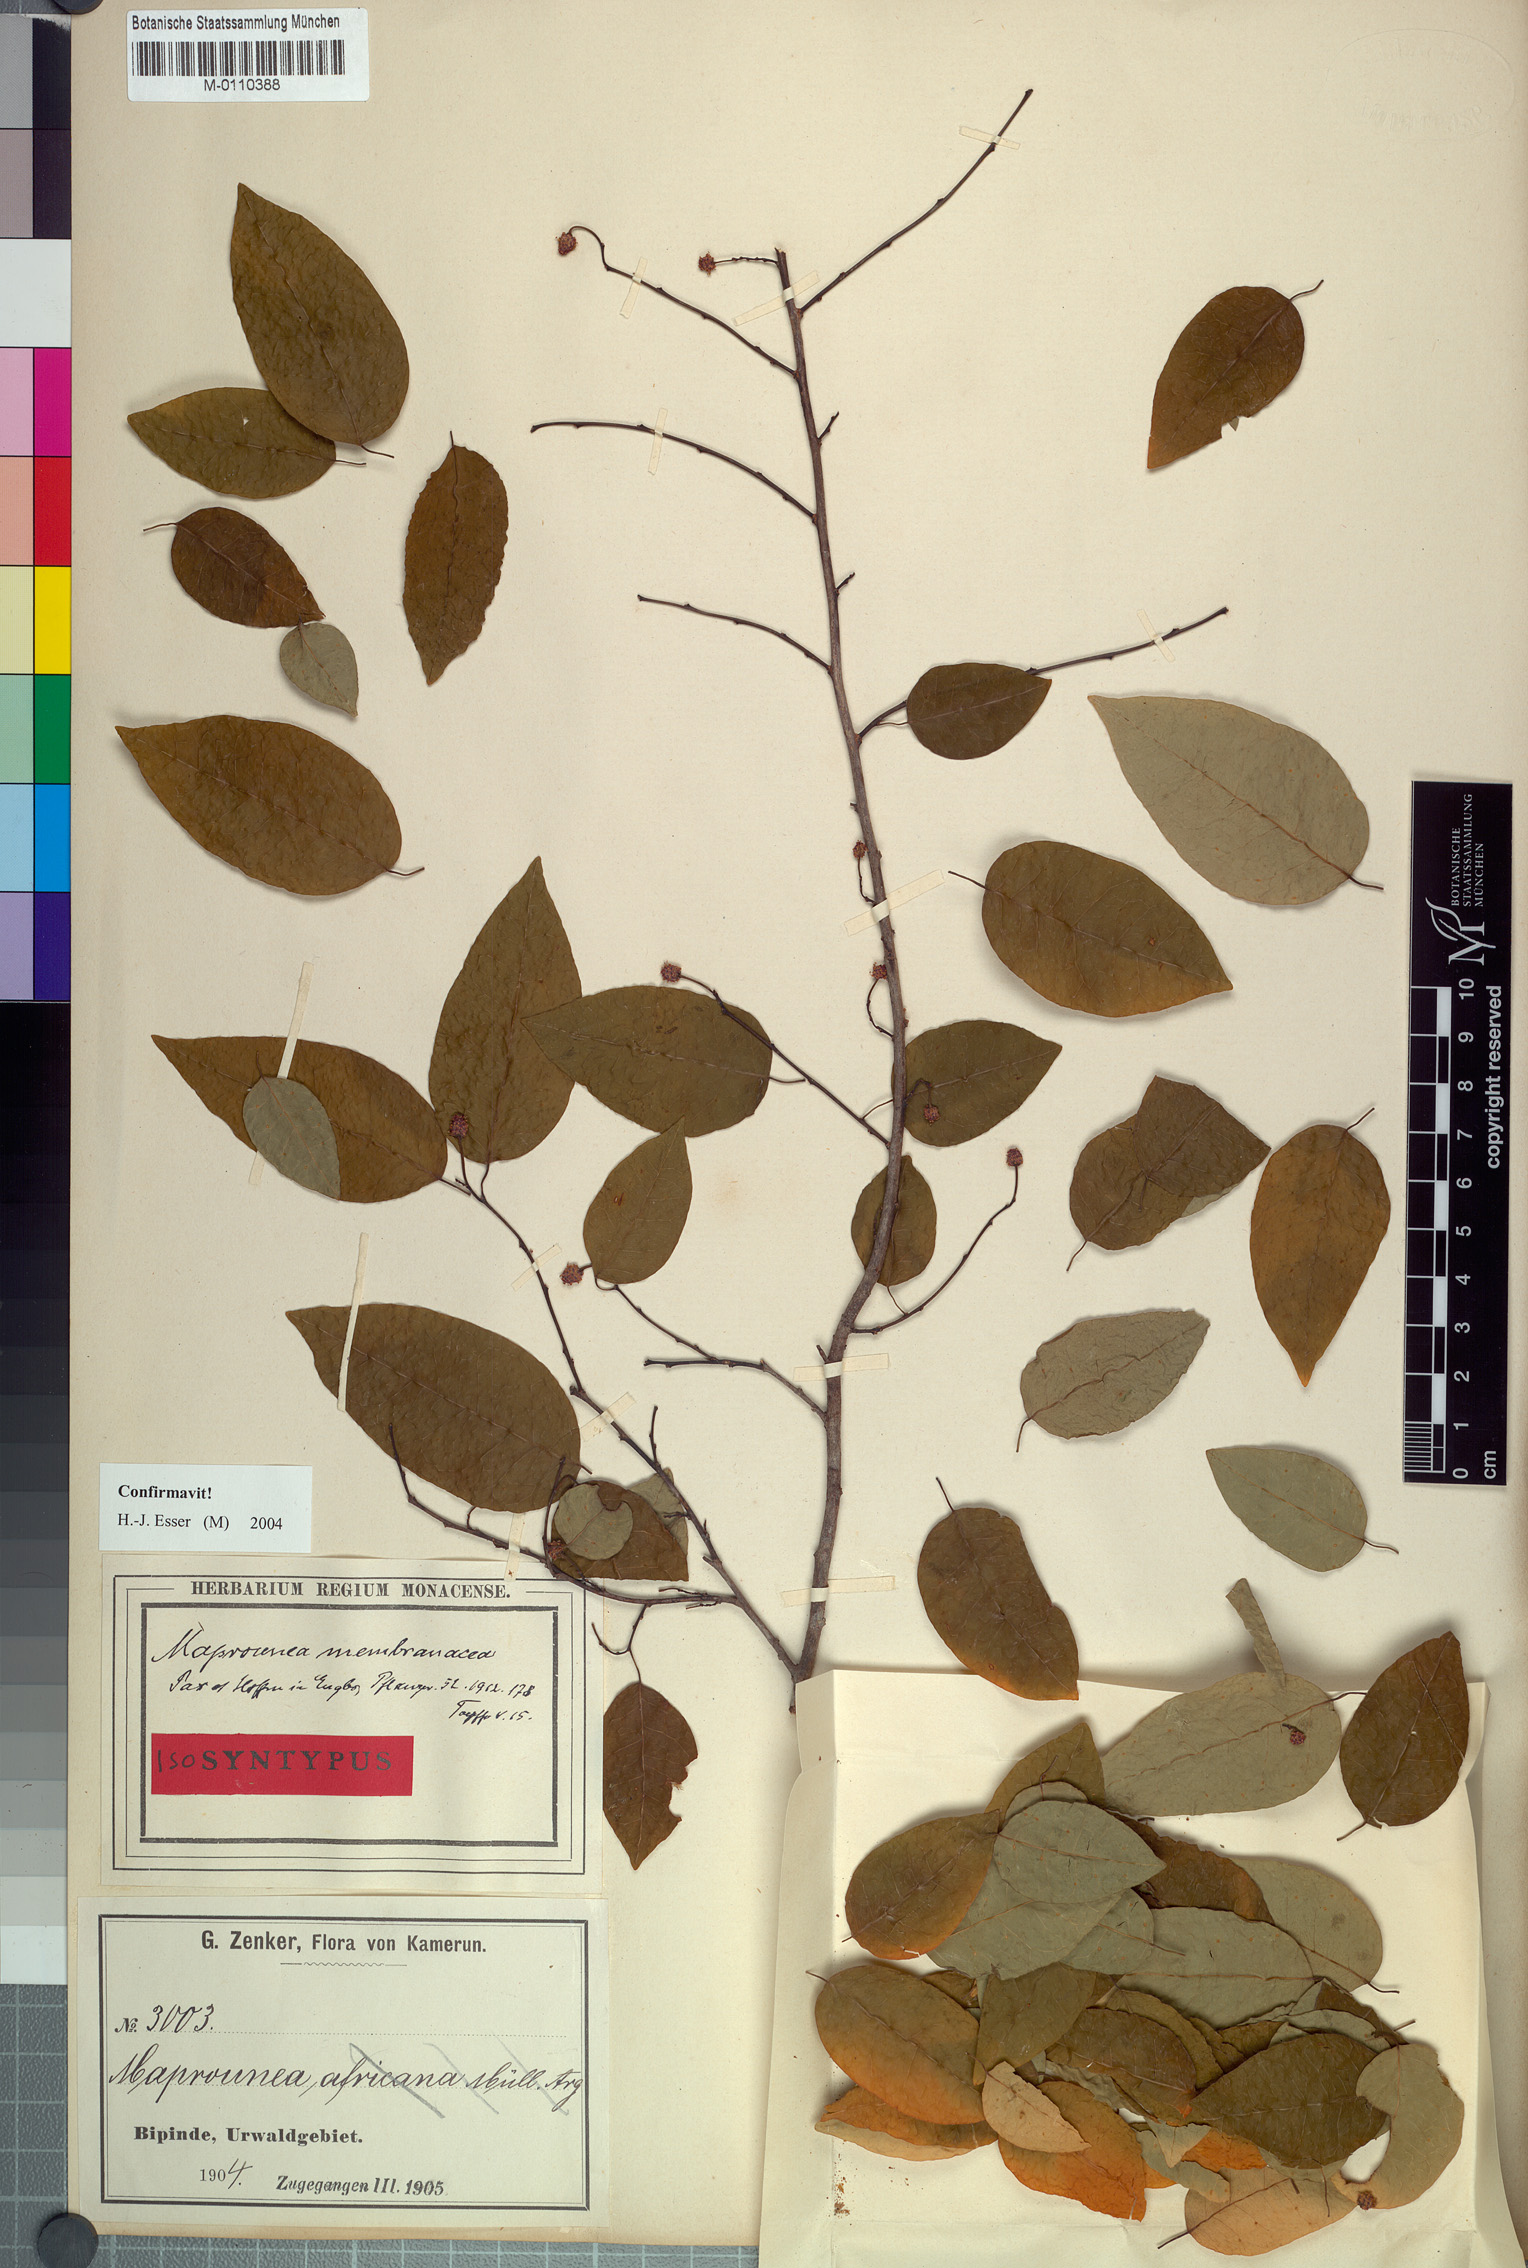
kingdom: Plantae
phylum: Tracheophyta
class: Magnoliopsida
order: Malpighiales
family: Euphorbiaceae
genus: Maprounea
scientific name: Maprounea membranacea
